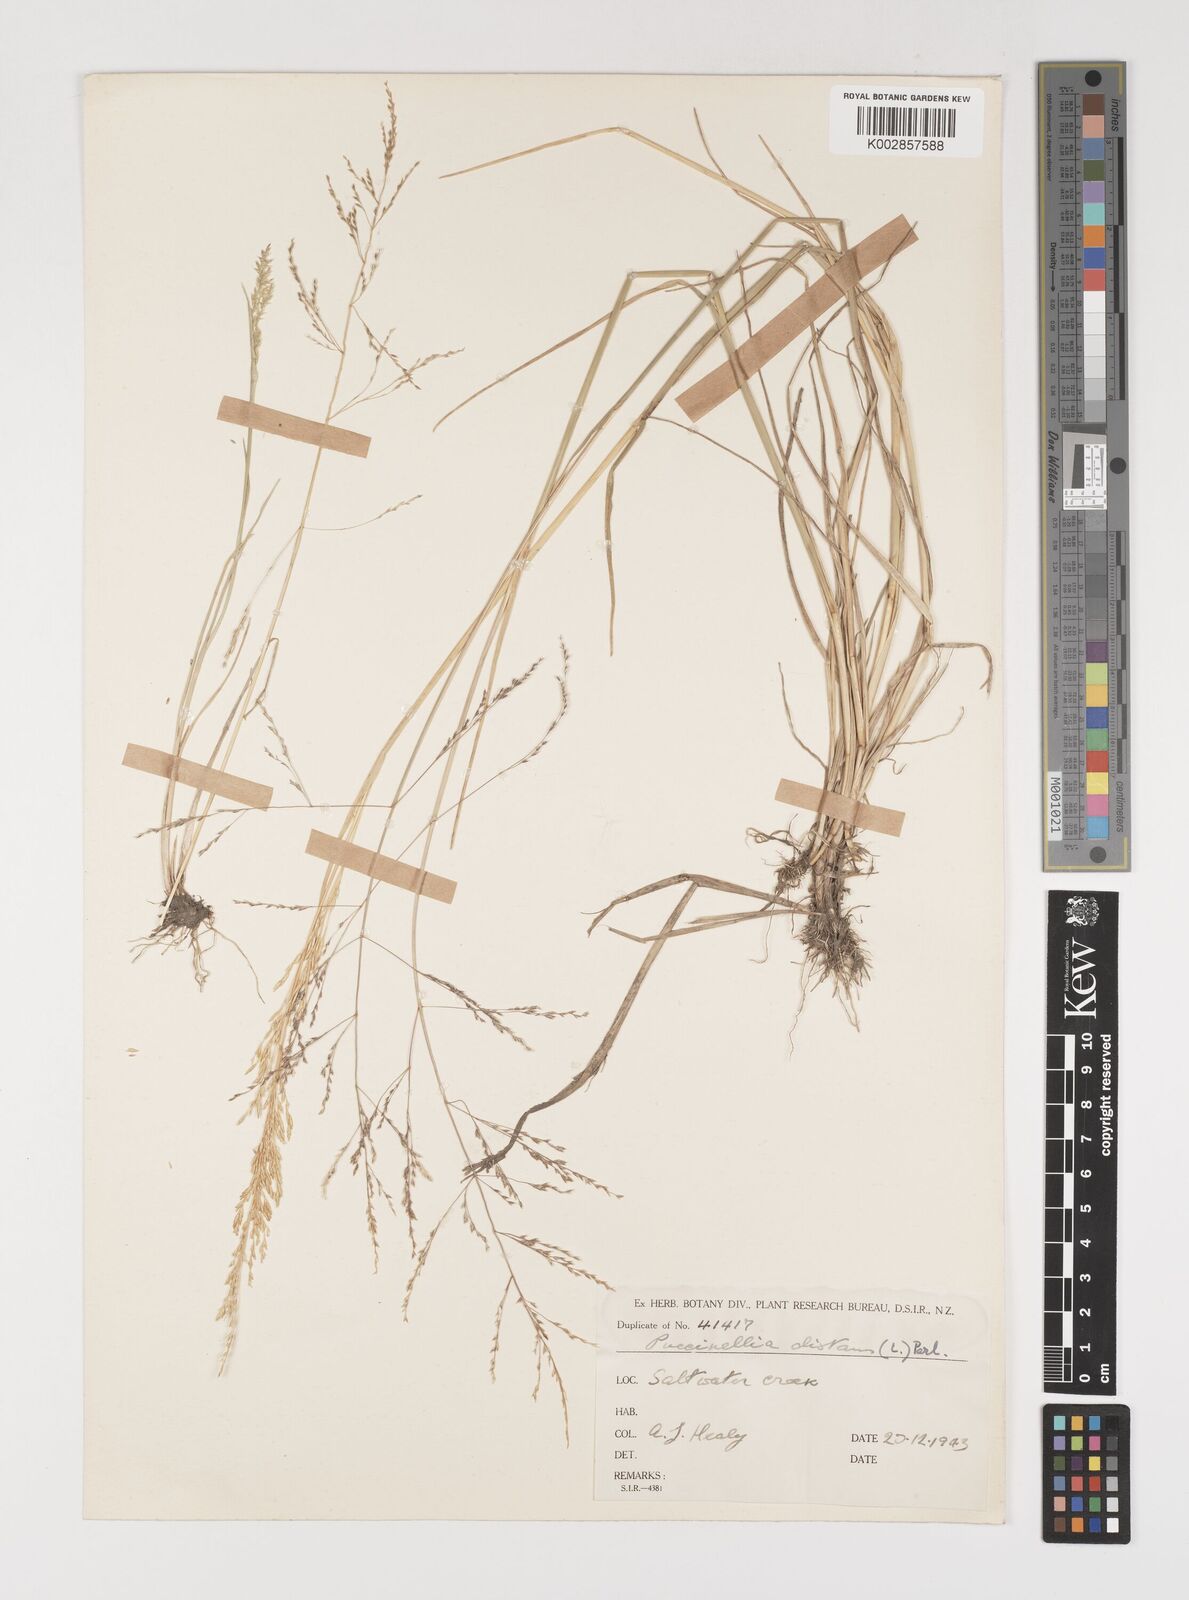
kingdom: Plantae
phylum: Tracheophyta
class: Liliopsida
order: Poales
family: Poaceae
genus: Puccinellia
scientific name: Puccinellia distans
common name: Weeping alkaligrass
